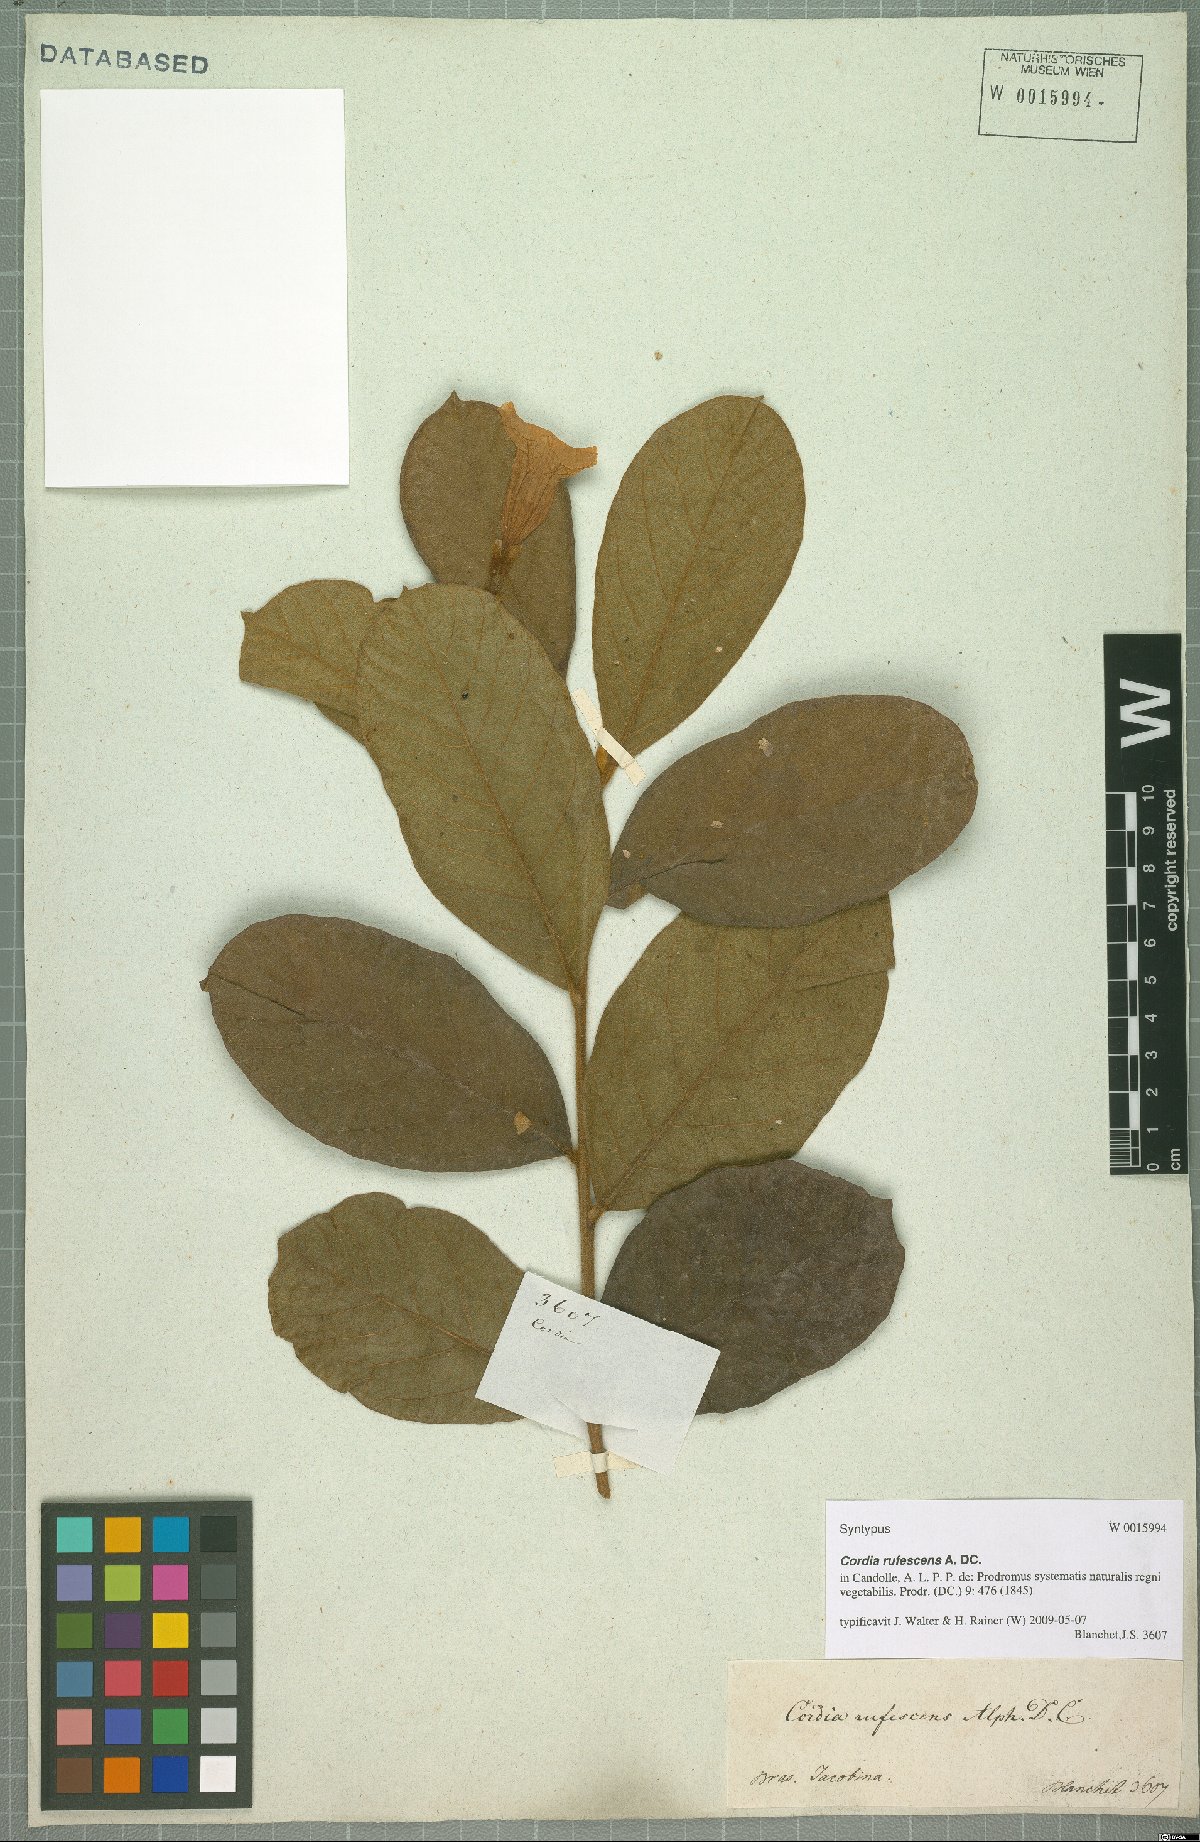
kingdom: Plantae
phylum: Tracheophyta
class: Magnoliopsida
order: Boraginales
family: Cordiaceae
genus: Cordia
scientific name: Cordia rufescens
